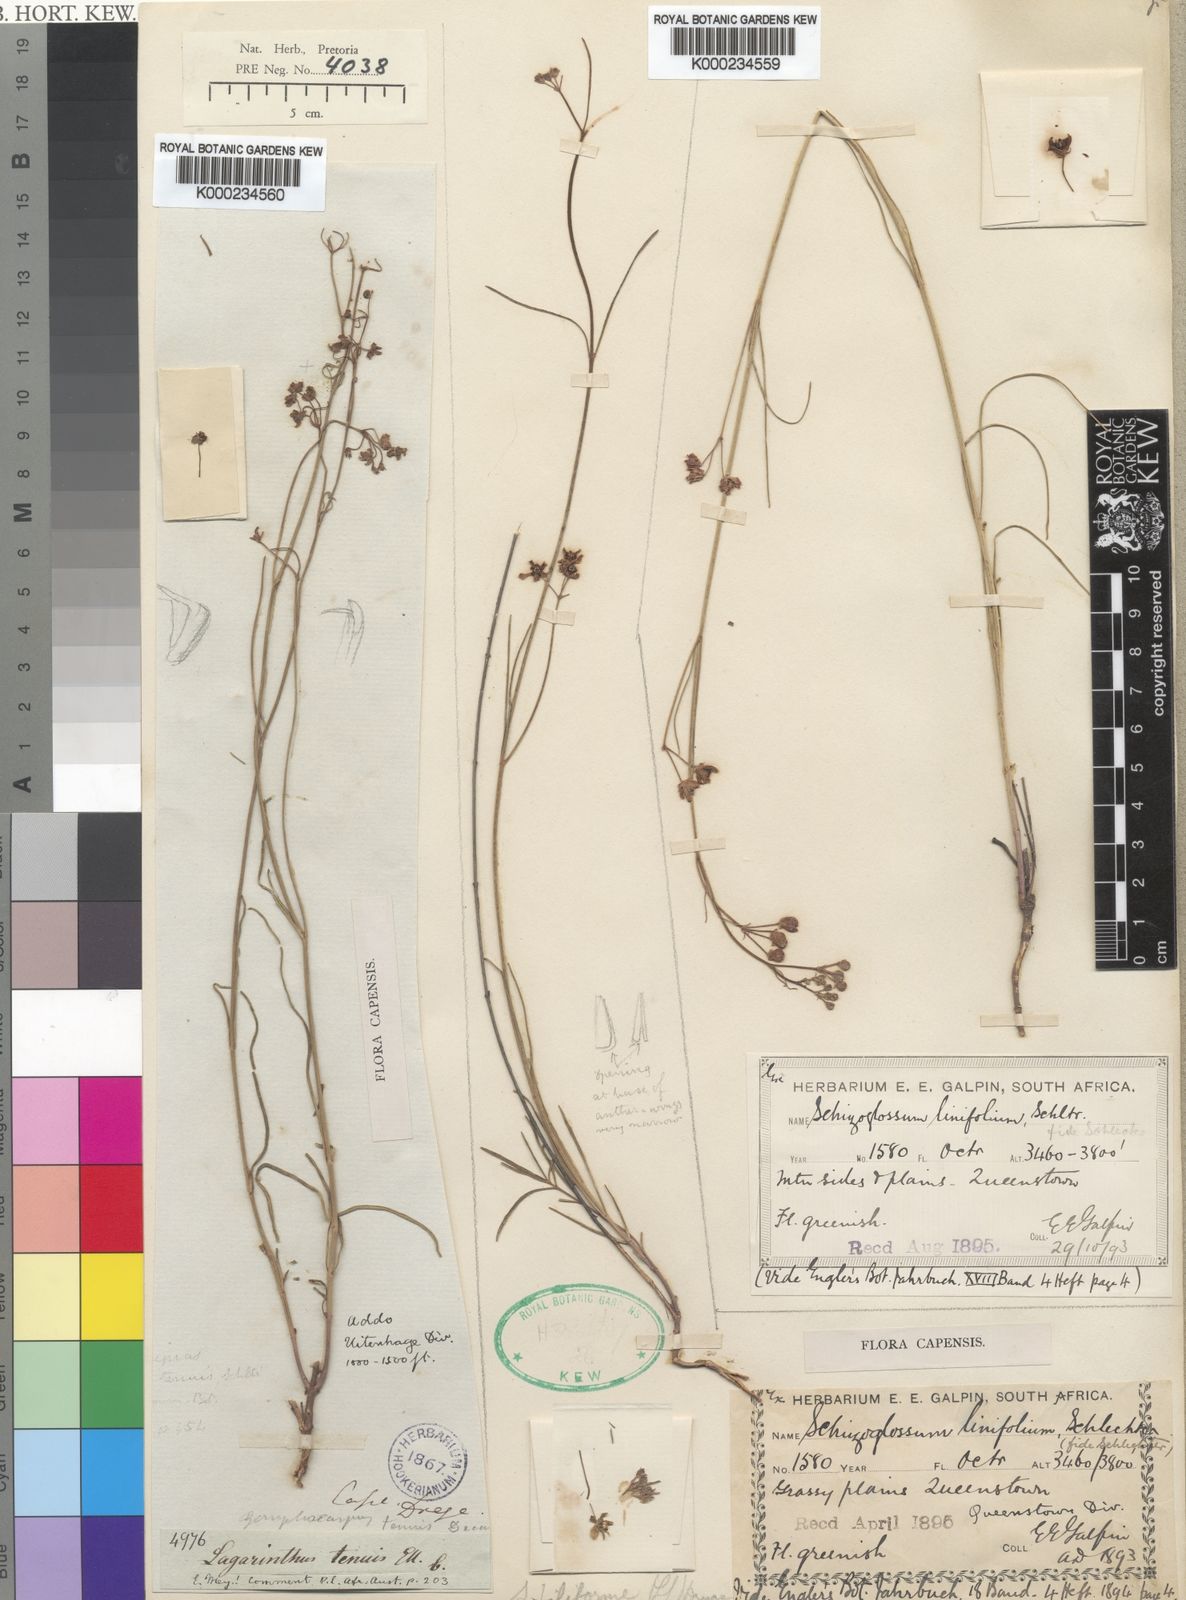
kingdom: Plantae
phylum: Tracheophyta
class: Magnoliopsida
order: Gentianales
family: Apocynaceae
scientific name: Apocynaceae
